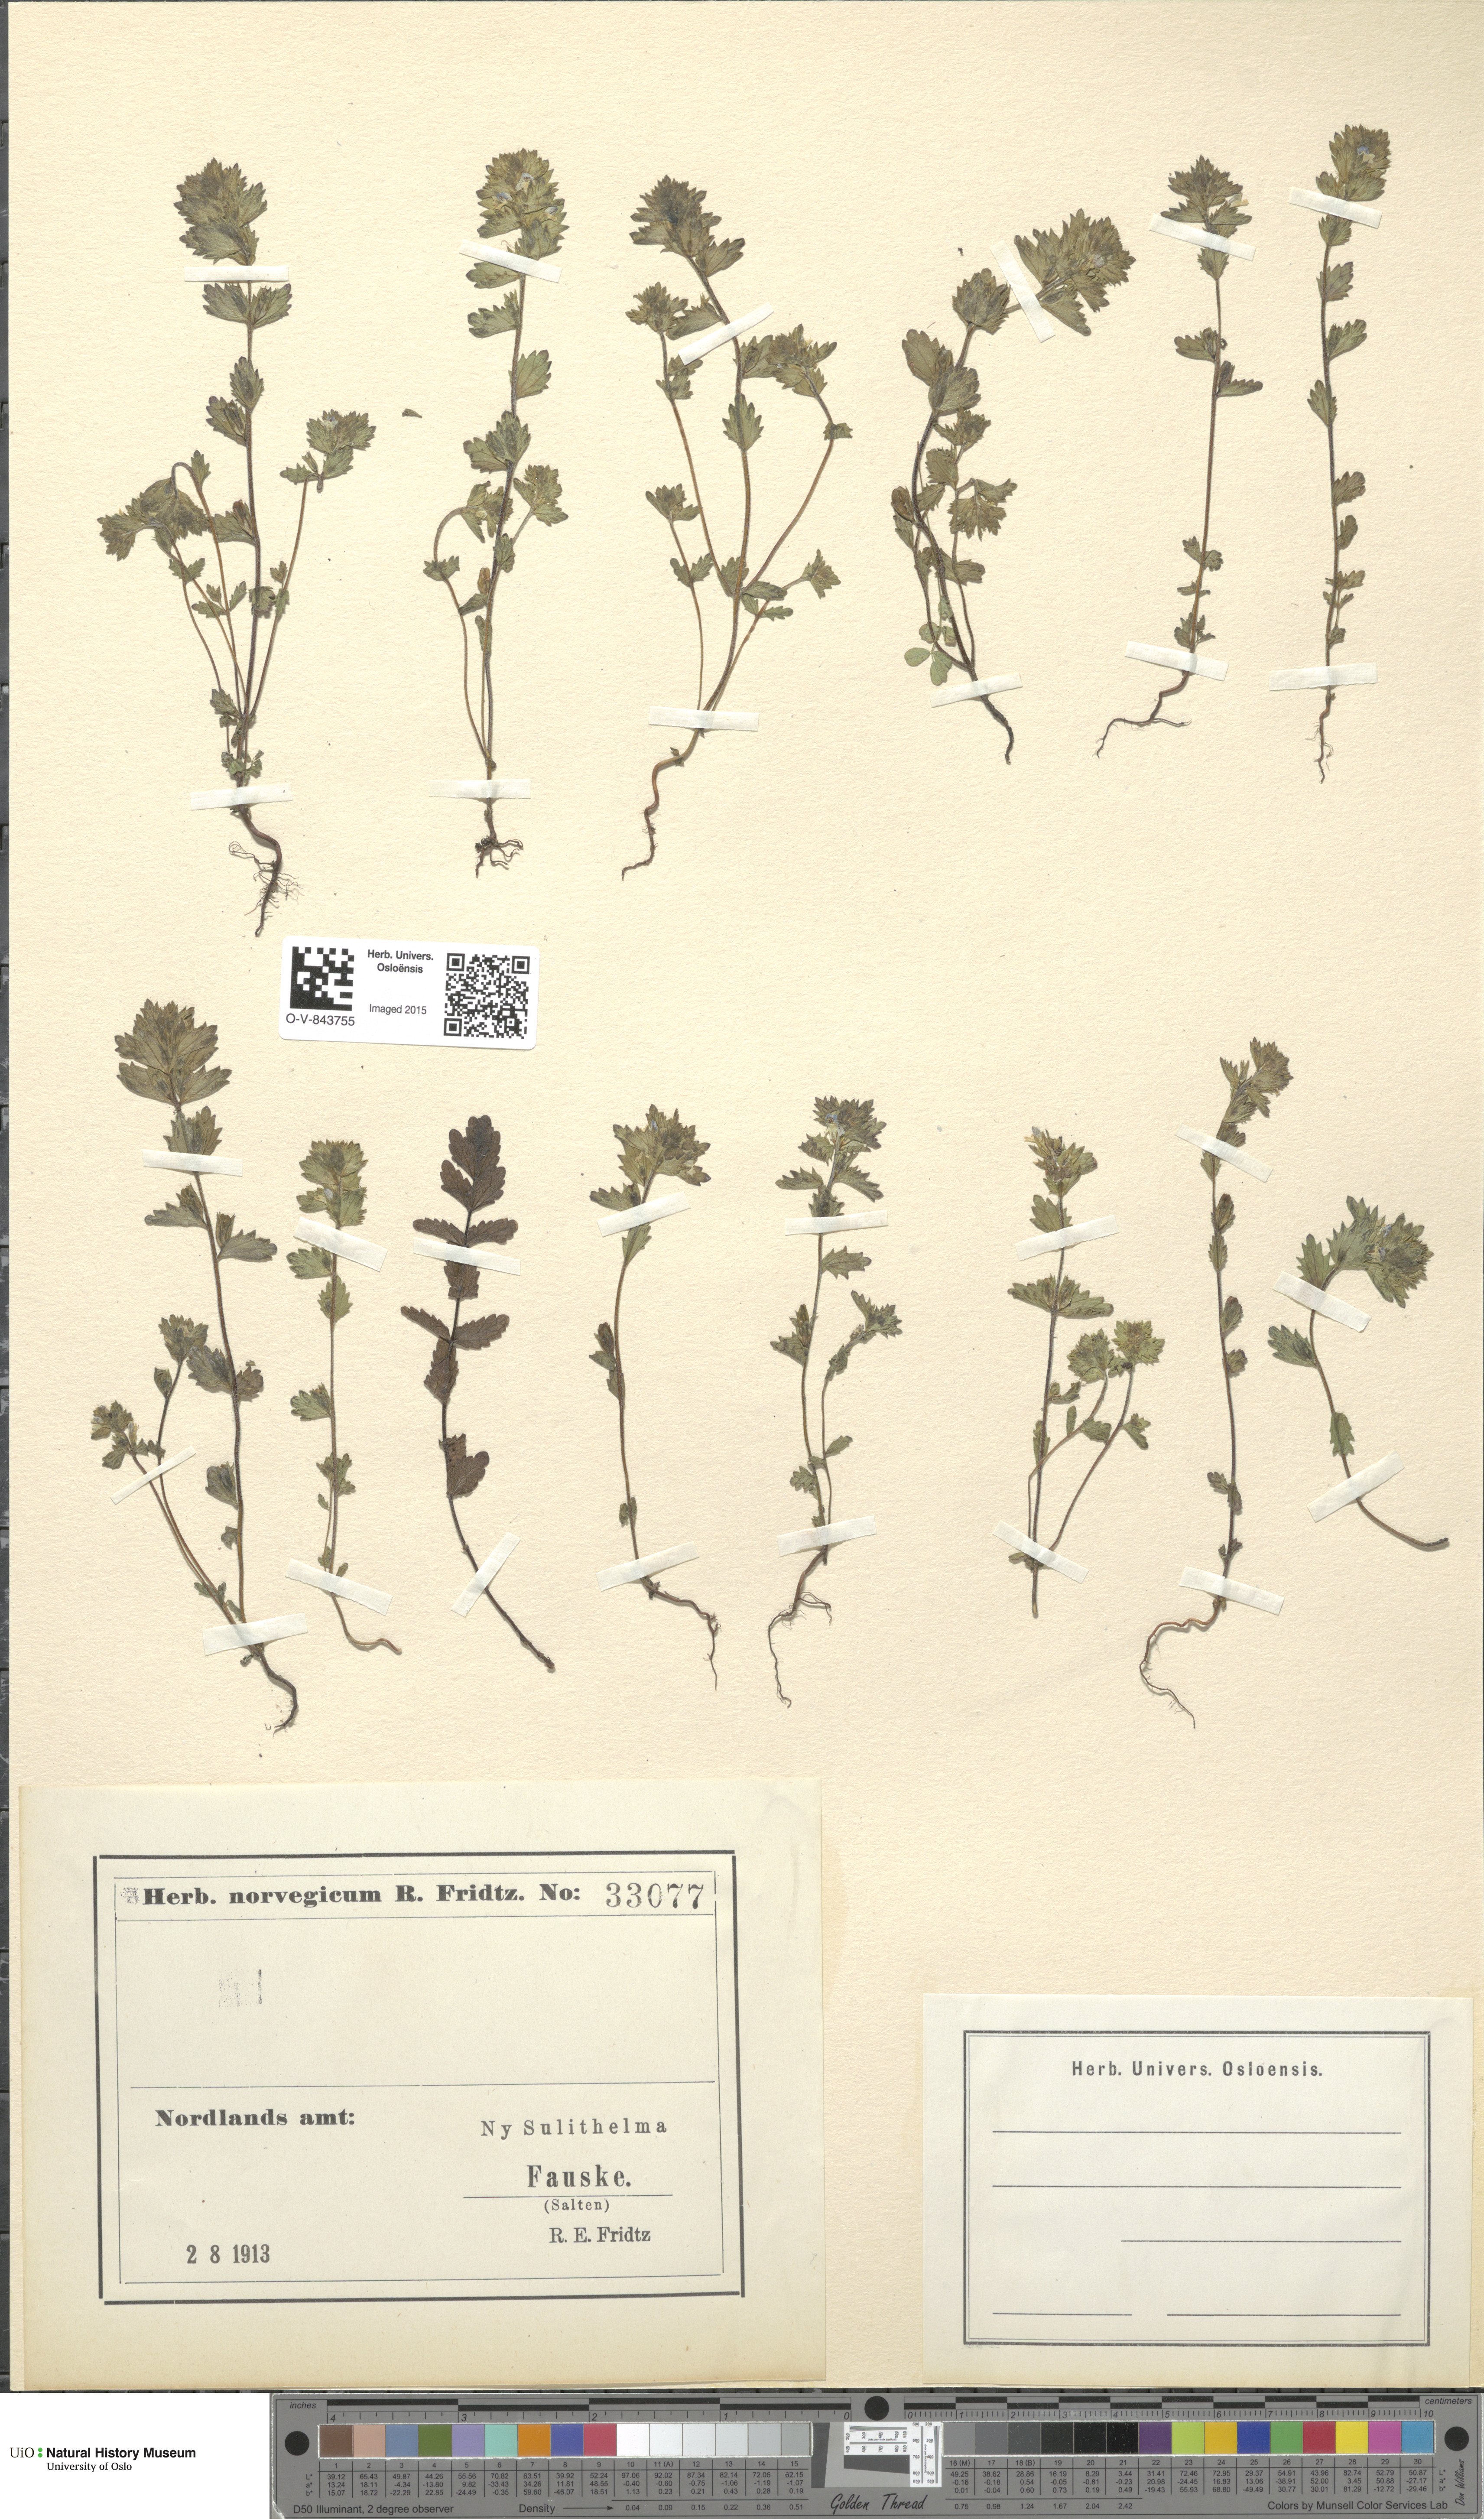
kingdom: Plantae
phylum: Tracheophyta
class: Magnoliopsida
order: Lamiales
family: Orobanchaceae
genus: Euphrasia
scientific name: Euphrasia
